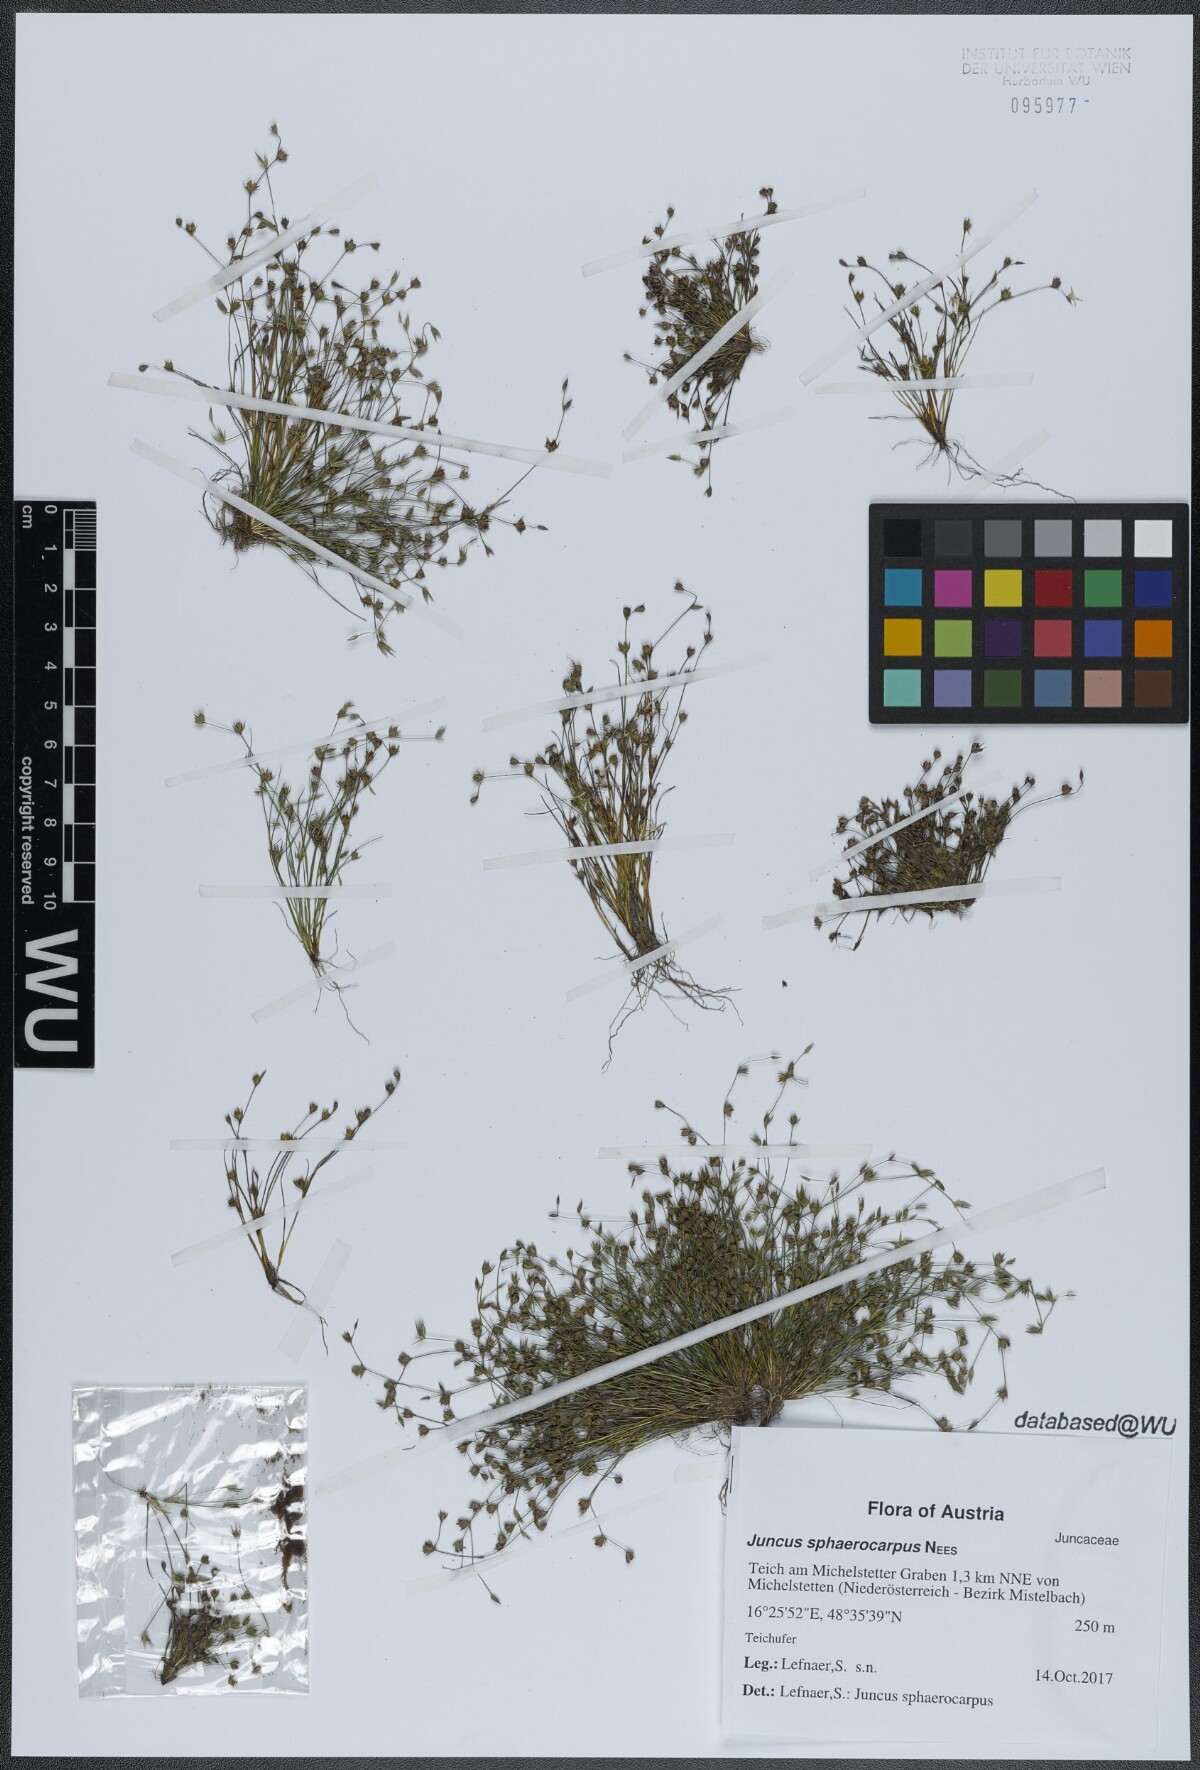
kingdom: Plantae
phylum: Tracheophyta
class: Liliopsida
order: Poales
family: Juncaceae
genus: Juncus
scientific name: Juncus sphaerocarpus
